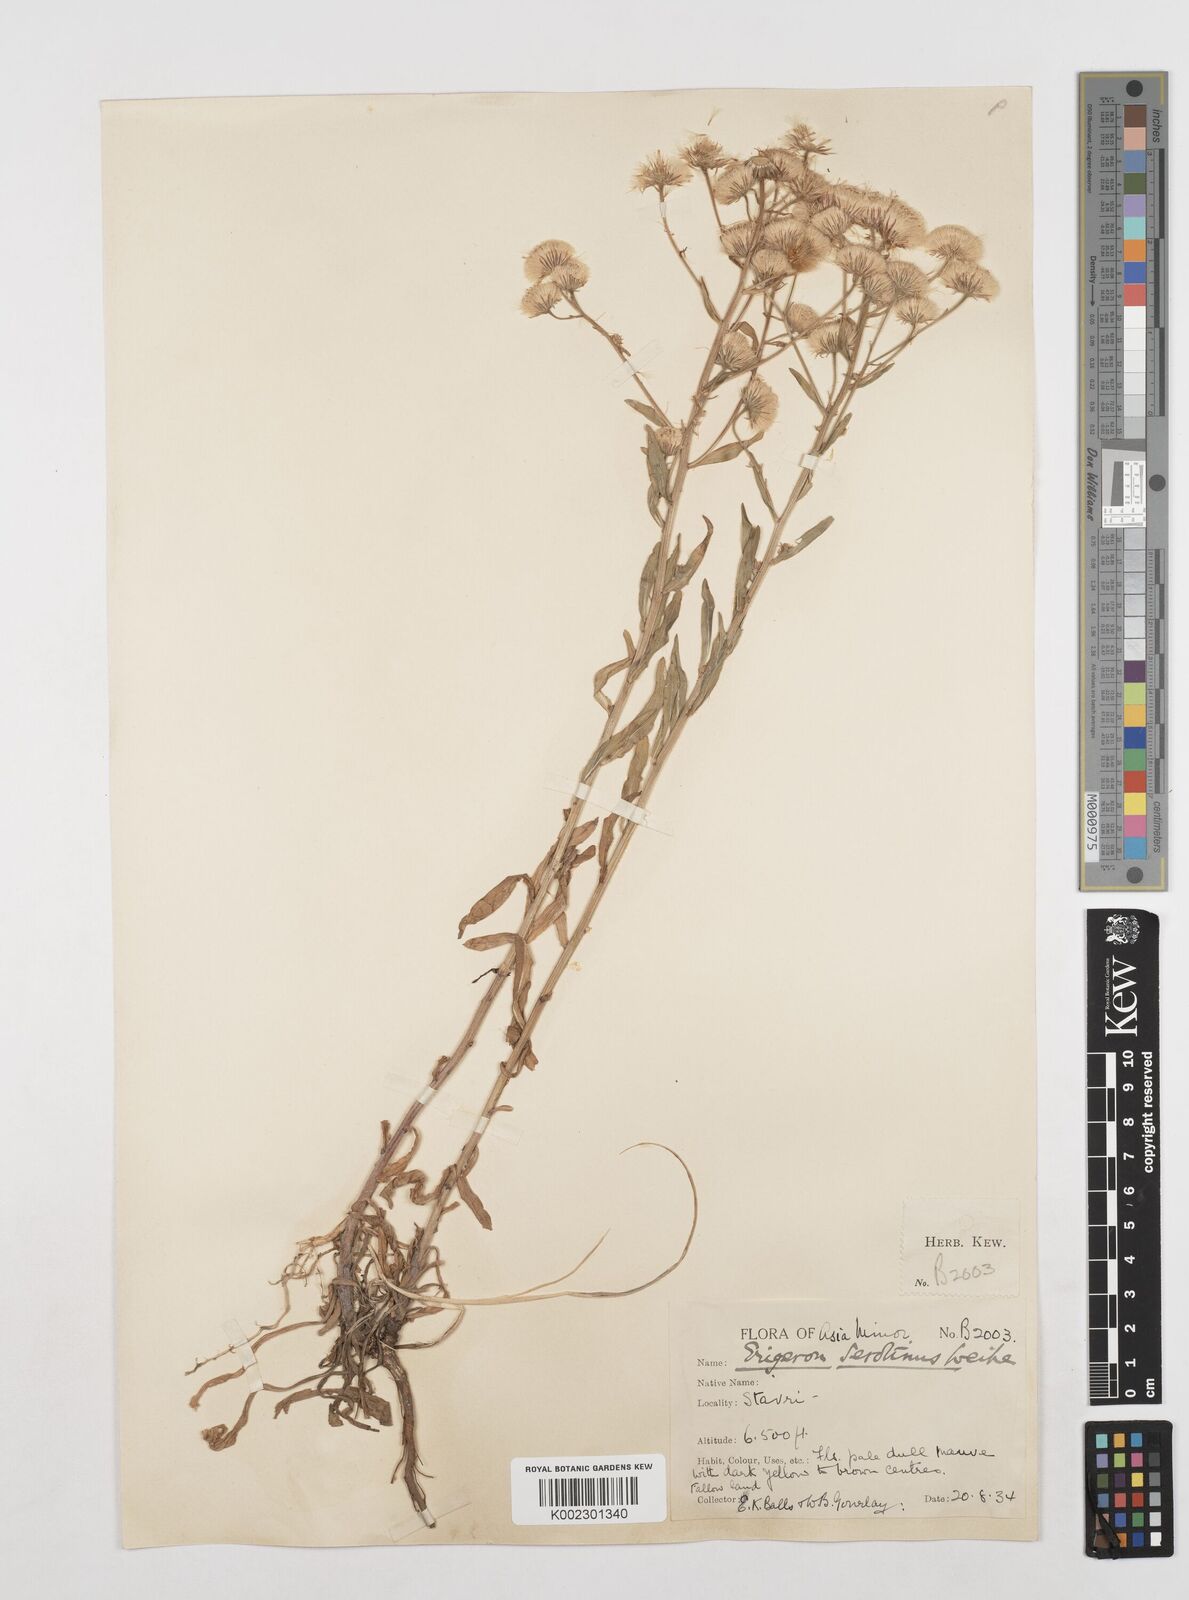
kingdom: Plantae
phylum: Tracheophyta
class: Magnoliopsida
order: Asterales
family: Asteraceae
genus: Erigeron
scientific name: Erigeron muralis
